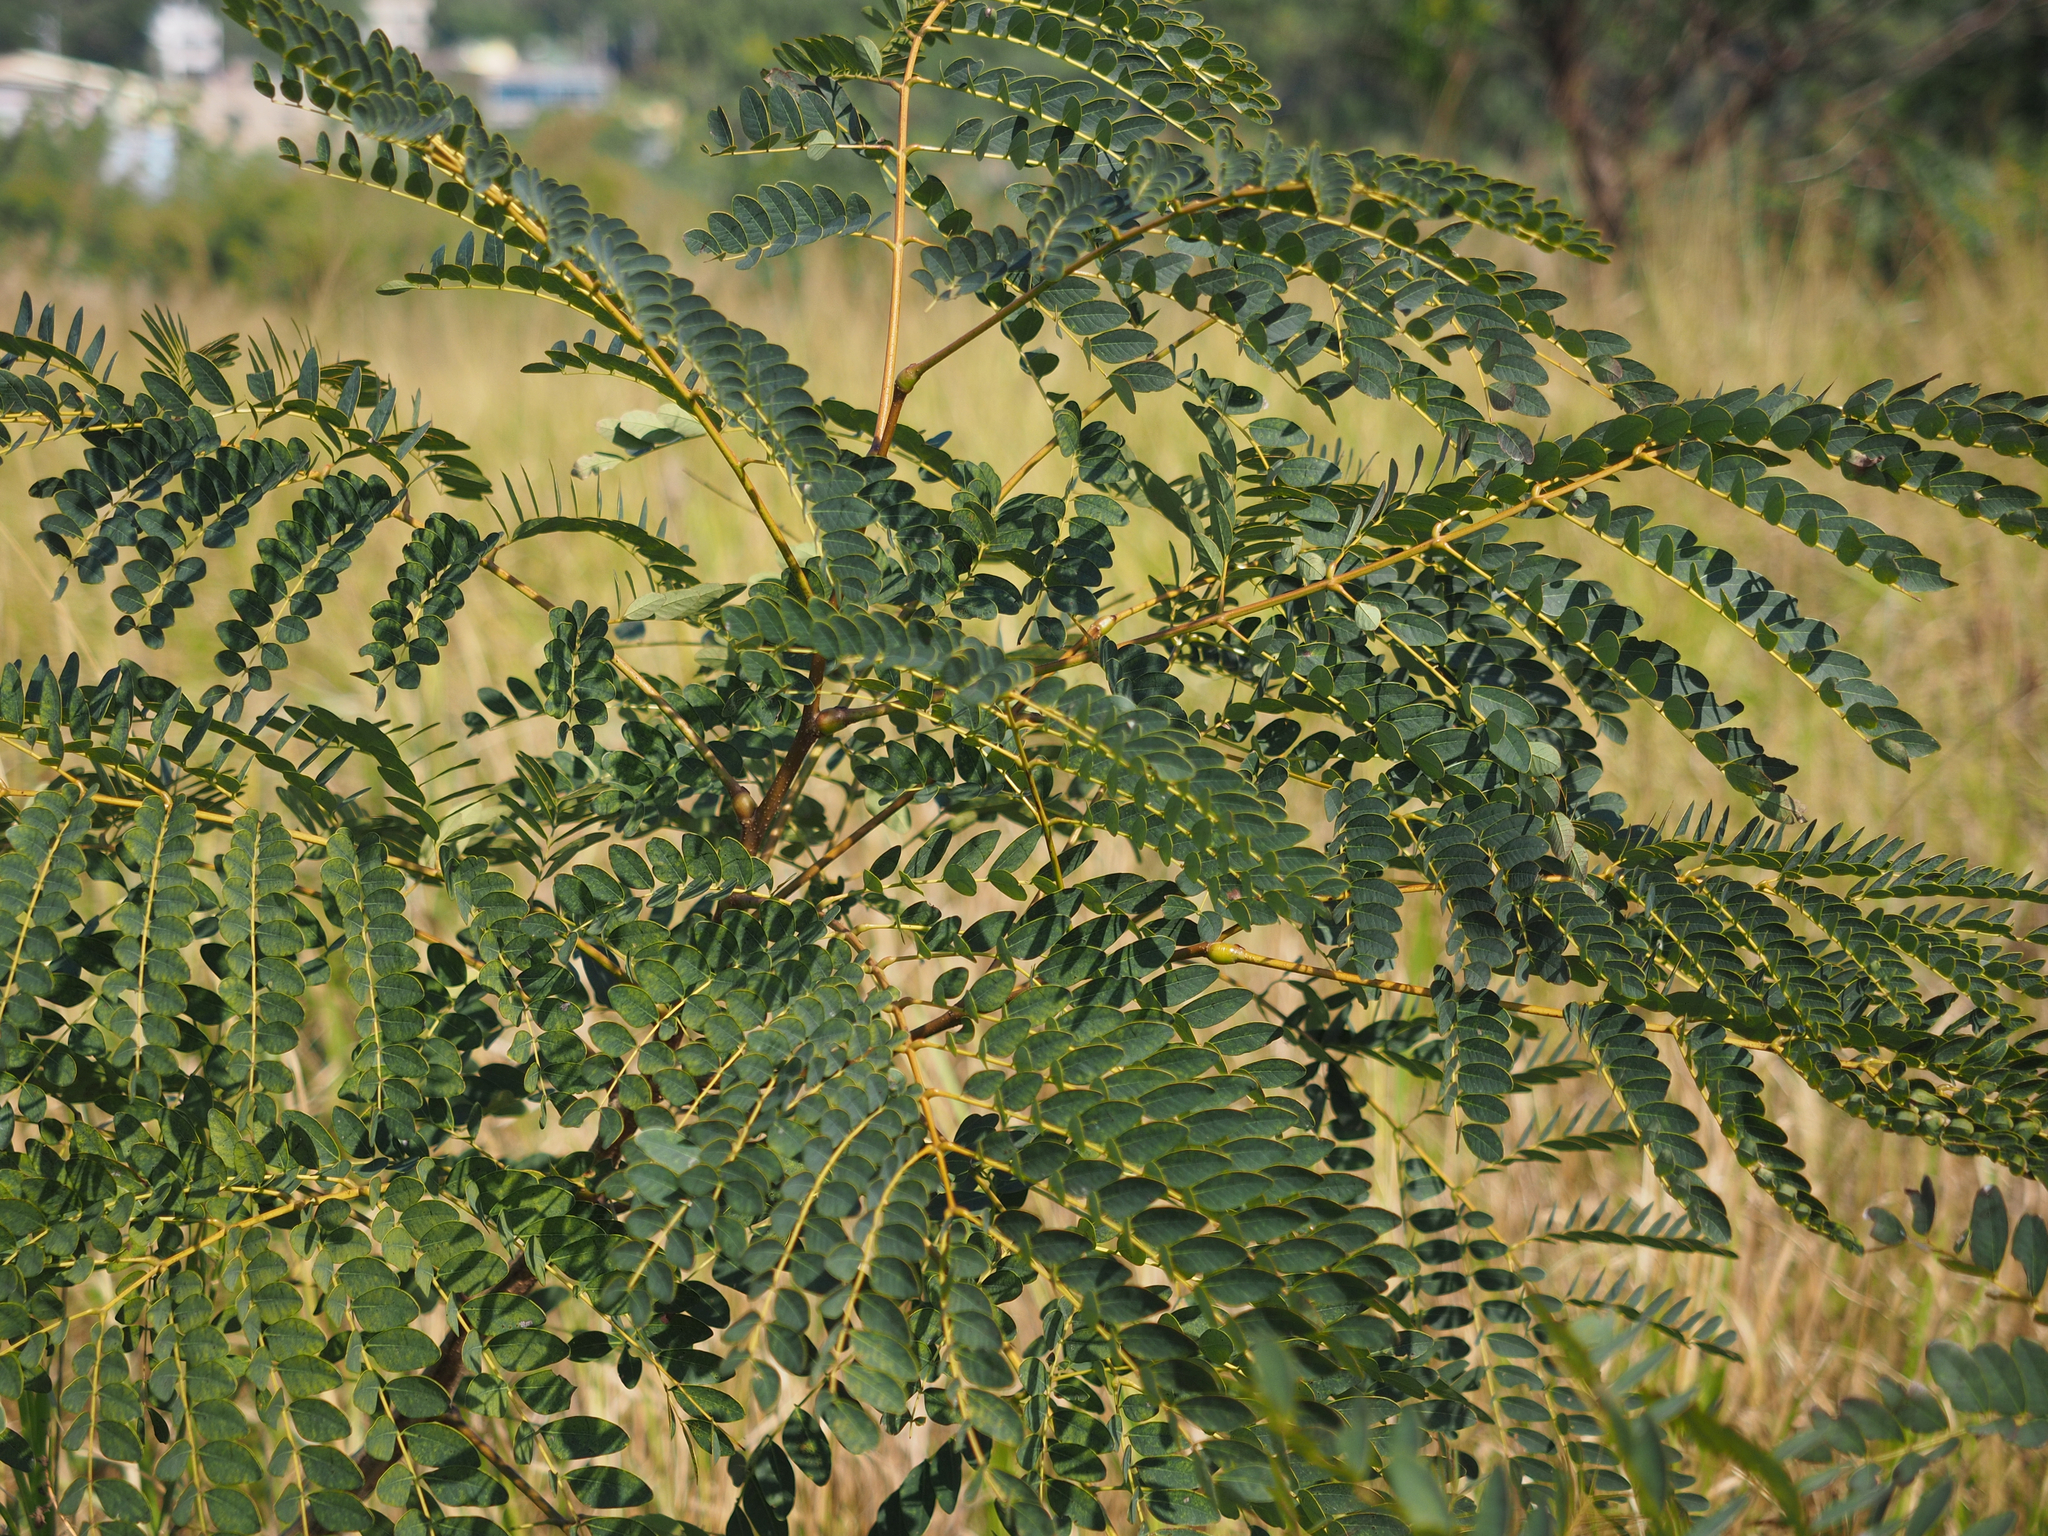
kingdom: Plantae
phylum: Tracheophyta
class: Magnoliopsida
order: Fabales
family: Fabaceae
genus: Albizia
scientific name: Albizia procera
